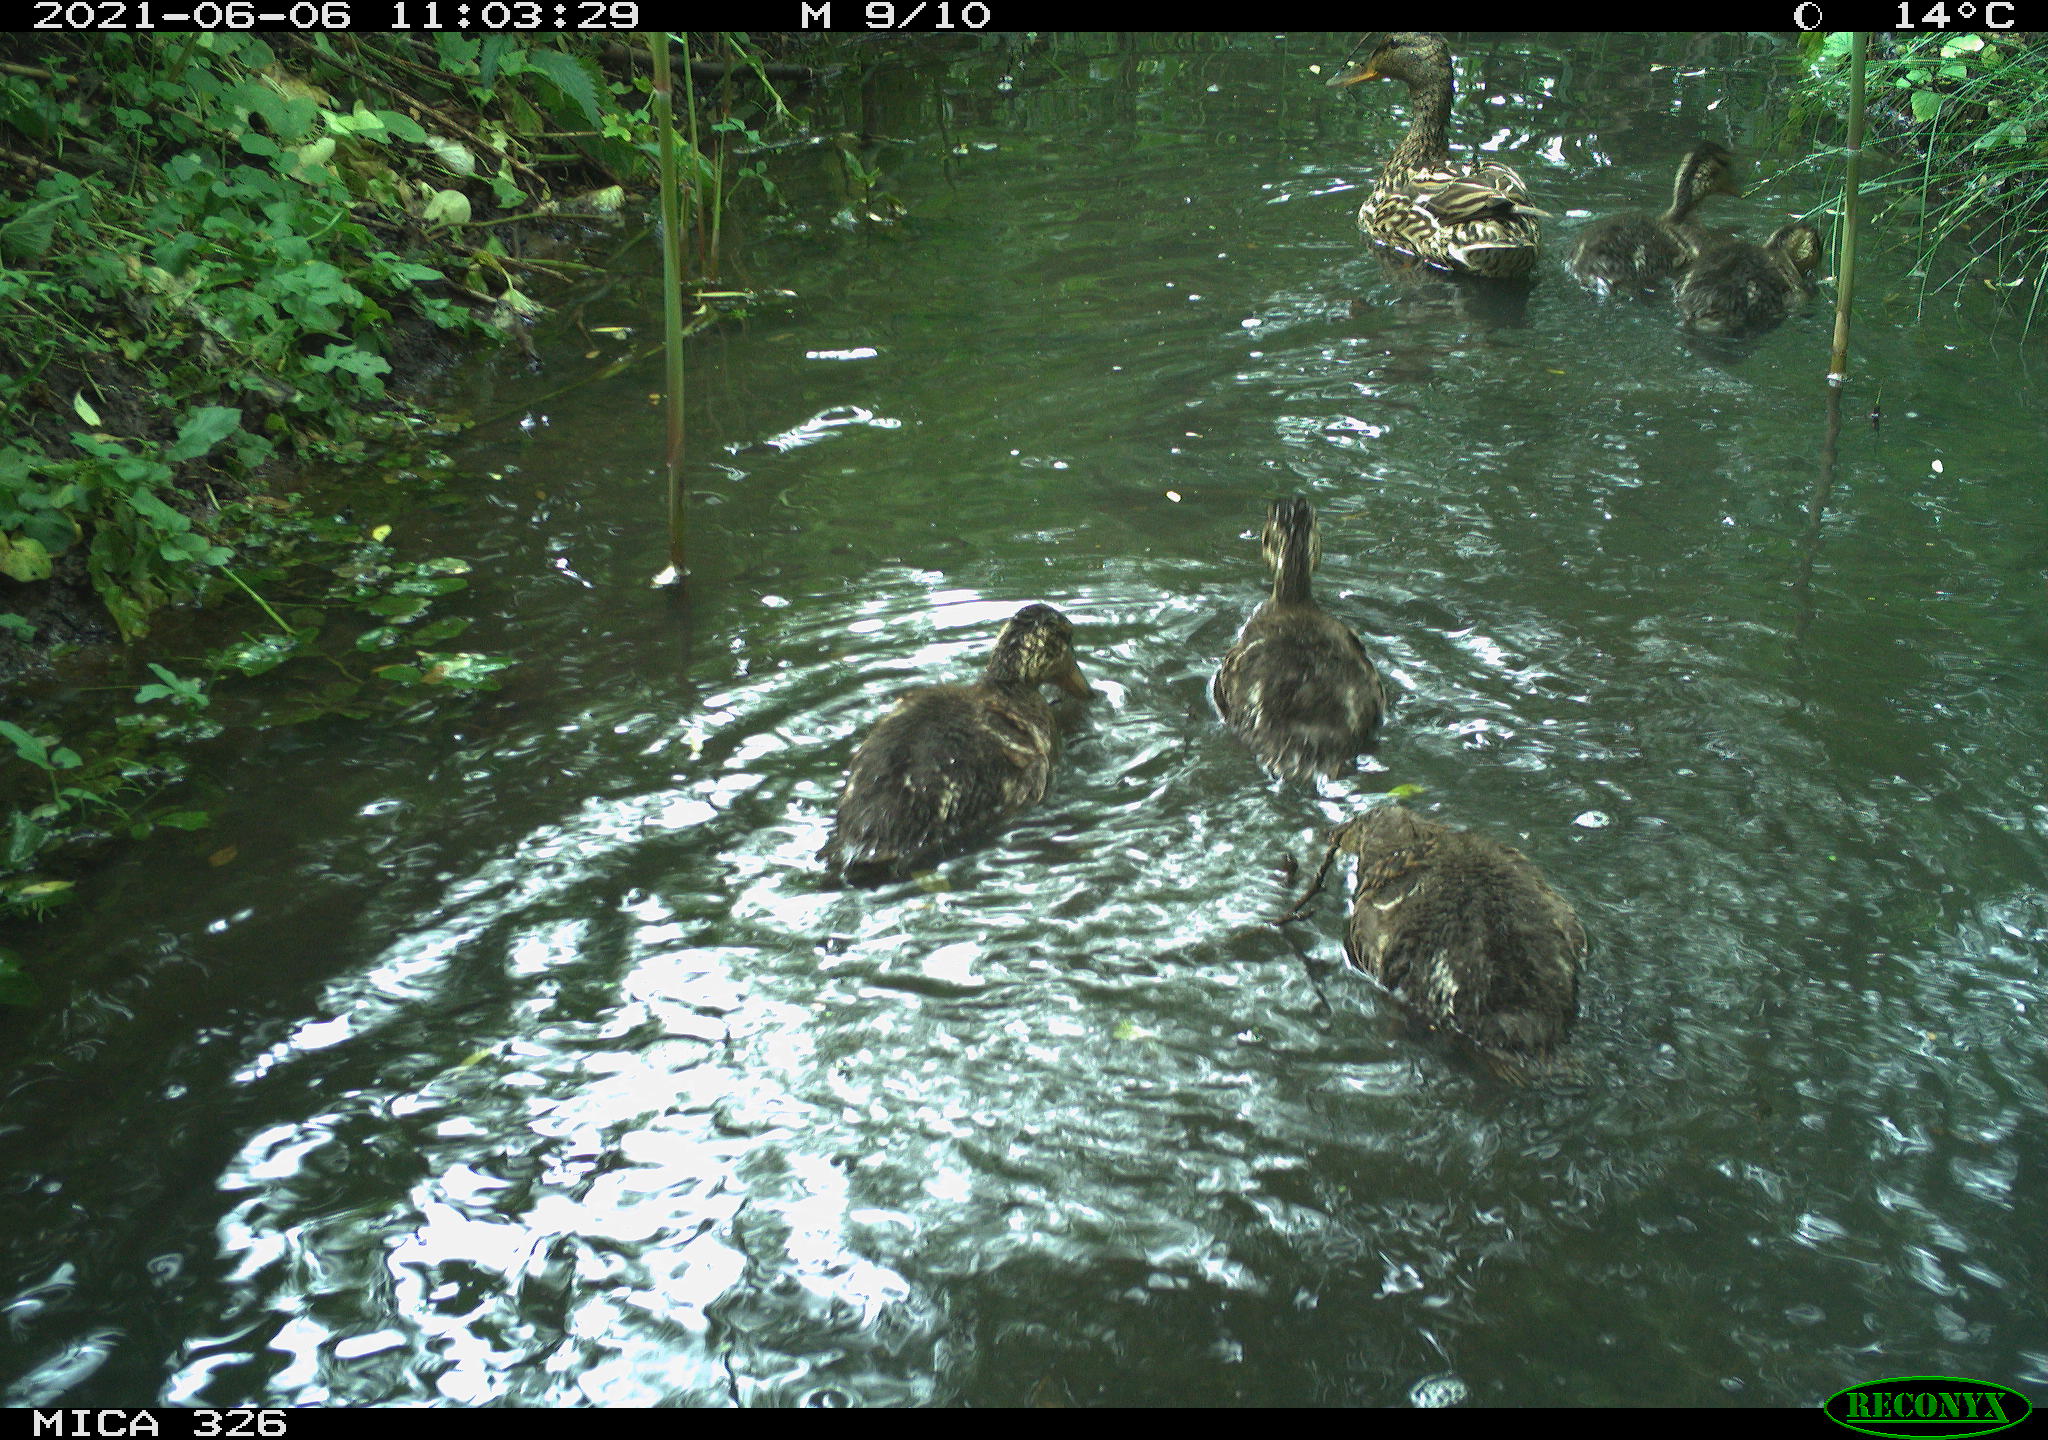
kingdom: Animalia
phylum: Chordata
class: Aves
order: Anseriformes
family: Anatidae
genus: Anas
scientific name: Anas platyrhynchos
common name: Mallard
